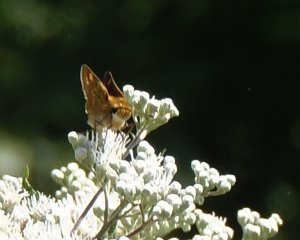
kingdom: Animalia
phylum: Arthropoda
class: Insecta
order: Lepidoptera
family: Hesperiidae
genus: Hylephila
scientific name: Hylephila phyleus
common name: Fiery Skipper
